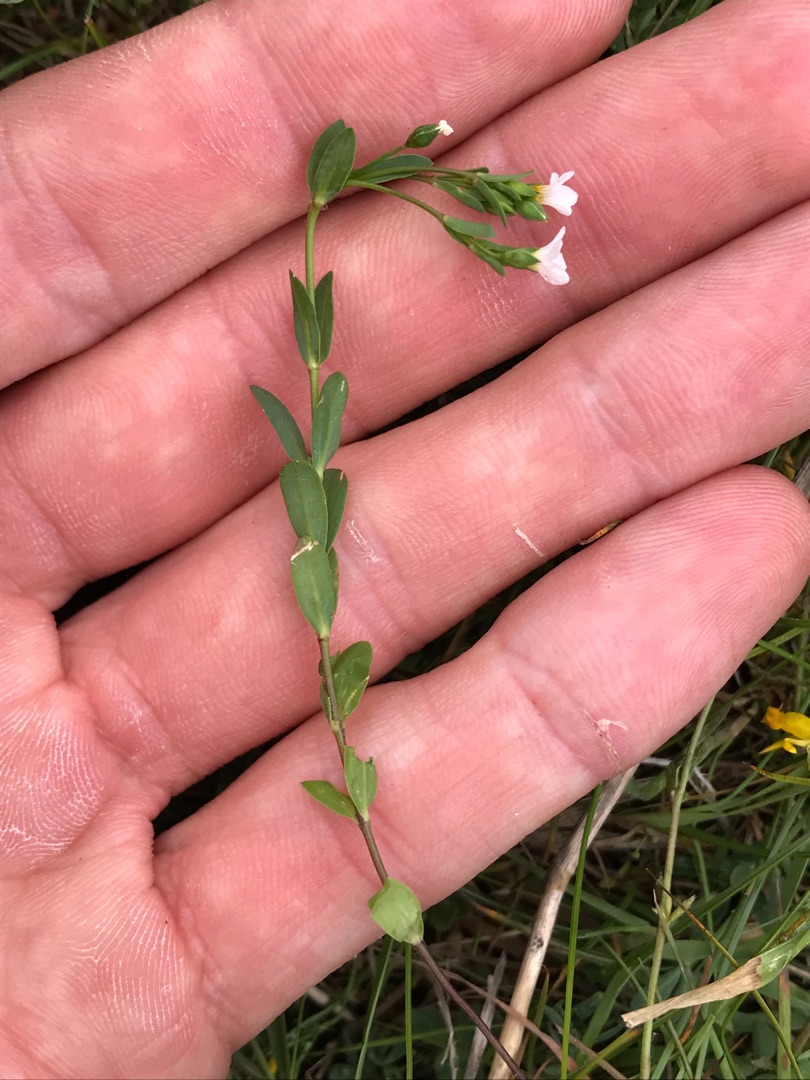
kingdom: Plantae
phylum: Tracheophyta
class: Magnoliopsida
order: Malpighiales
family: Linaceae
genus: Linum
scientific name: Linum catharticum
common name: Vild hør
